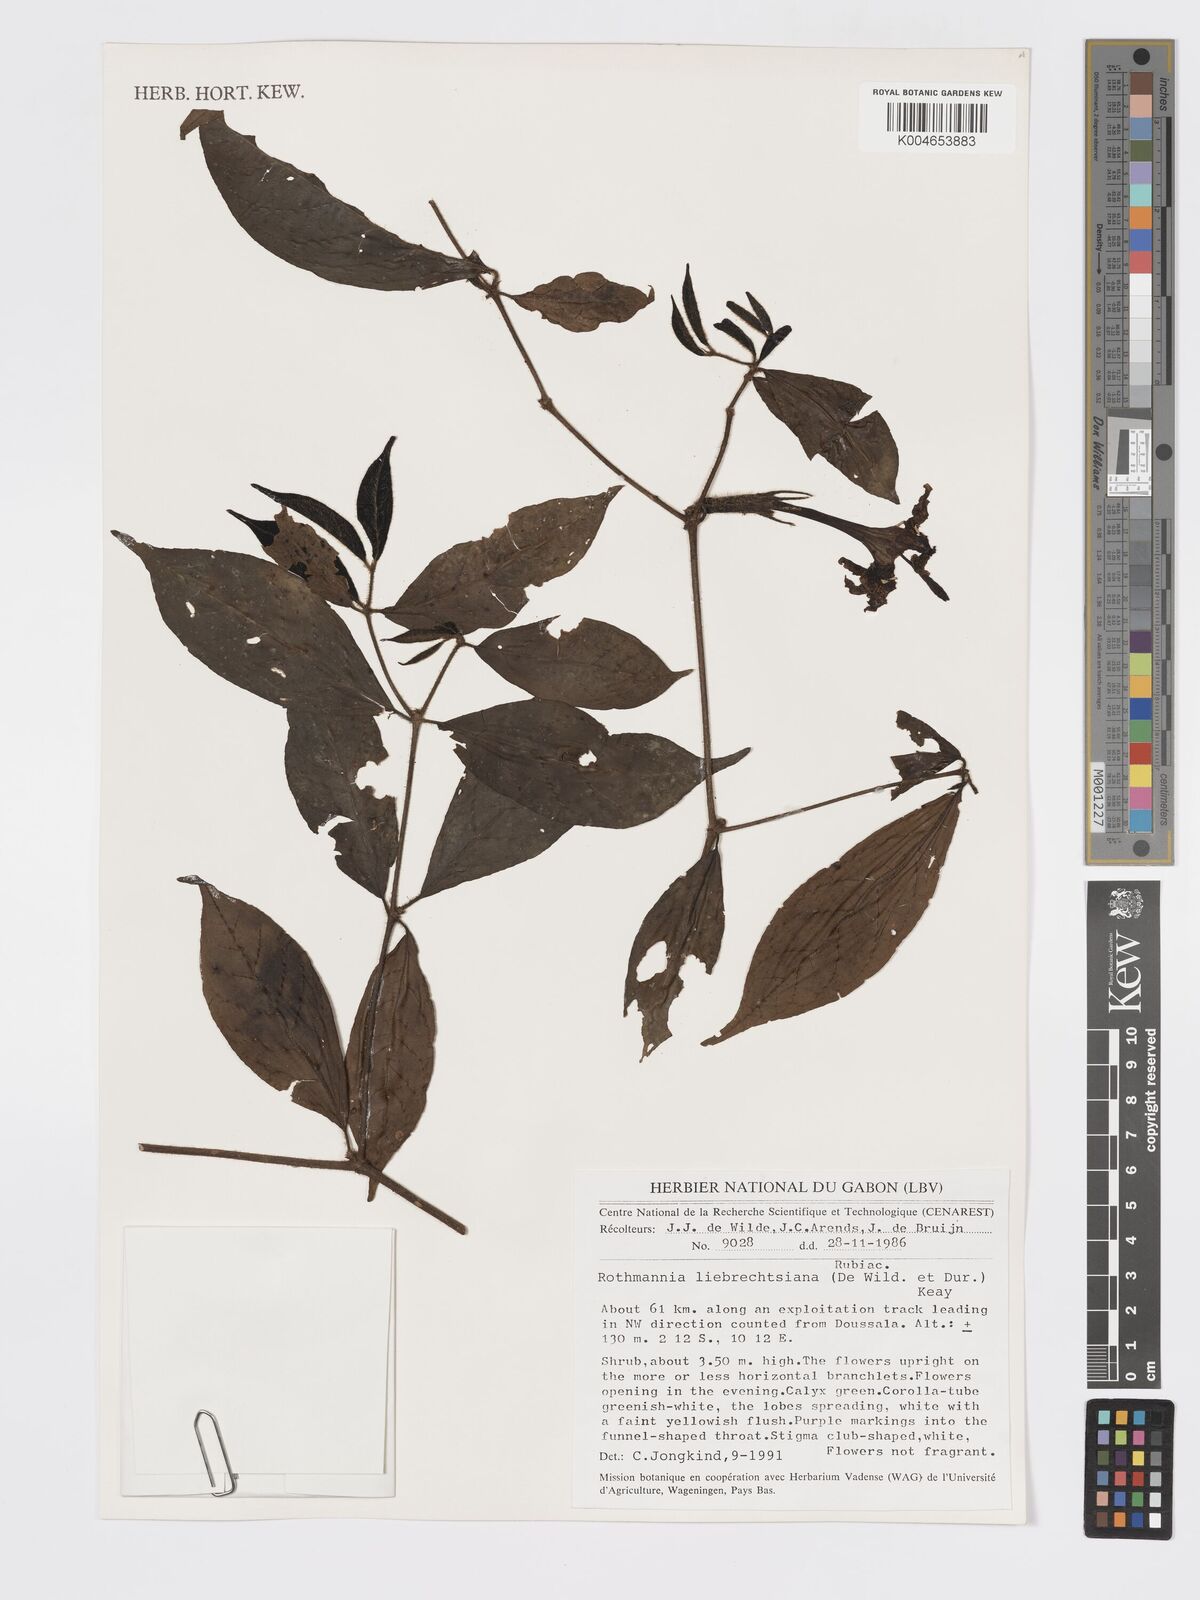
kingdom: Plantae
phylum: Tracheophyta
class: Magnoliopsida
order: Gentianales
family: Rubiaceae
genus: Rothmannia
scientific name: Rothmannia liebrechtsiana
